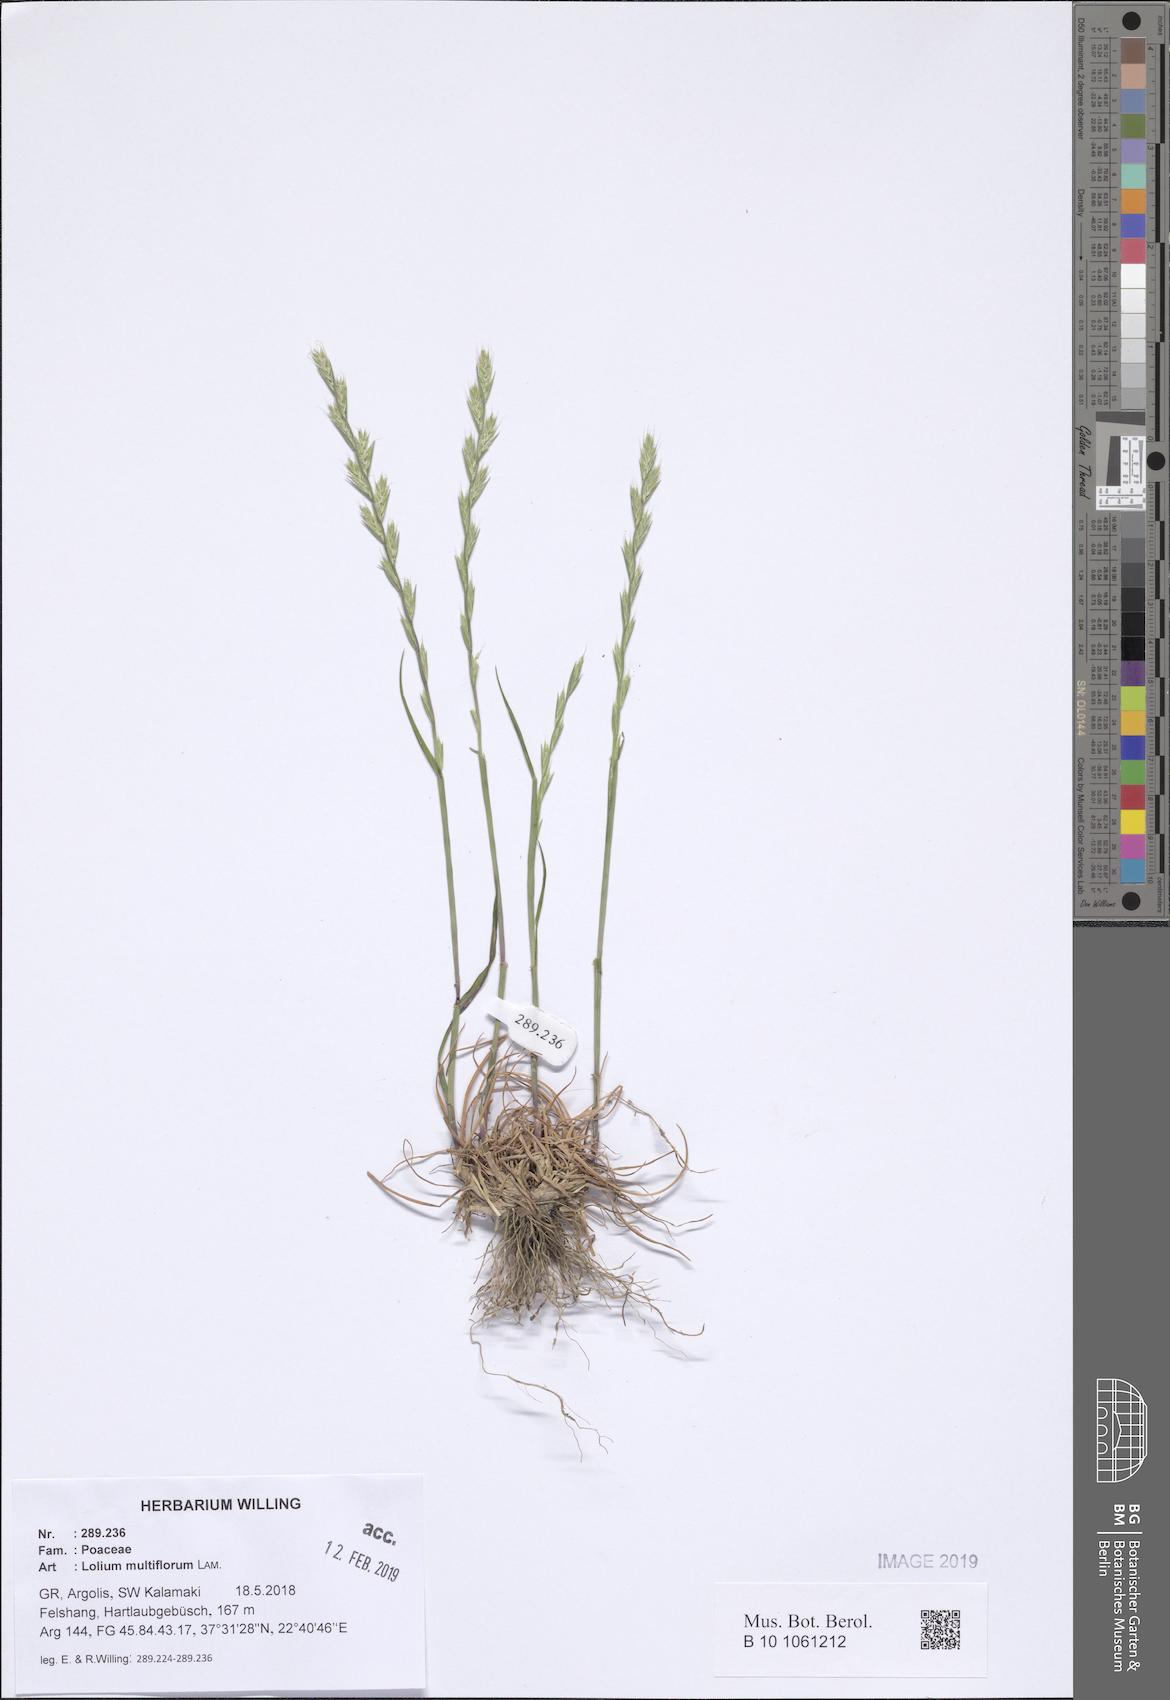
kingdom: Plantae
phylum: Tracheophyta
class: Liliopsida
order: Poales
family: Poaceae
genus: Lolium
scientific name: Lolium multiflorum
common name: Annual ryegrass
